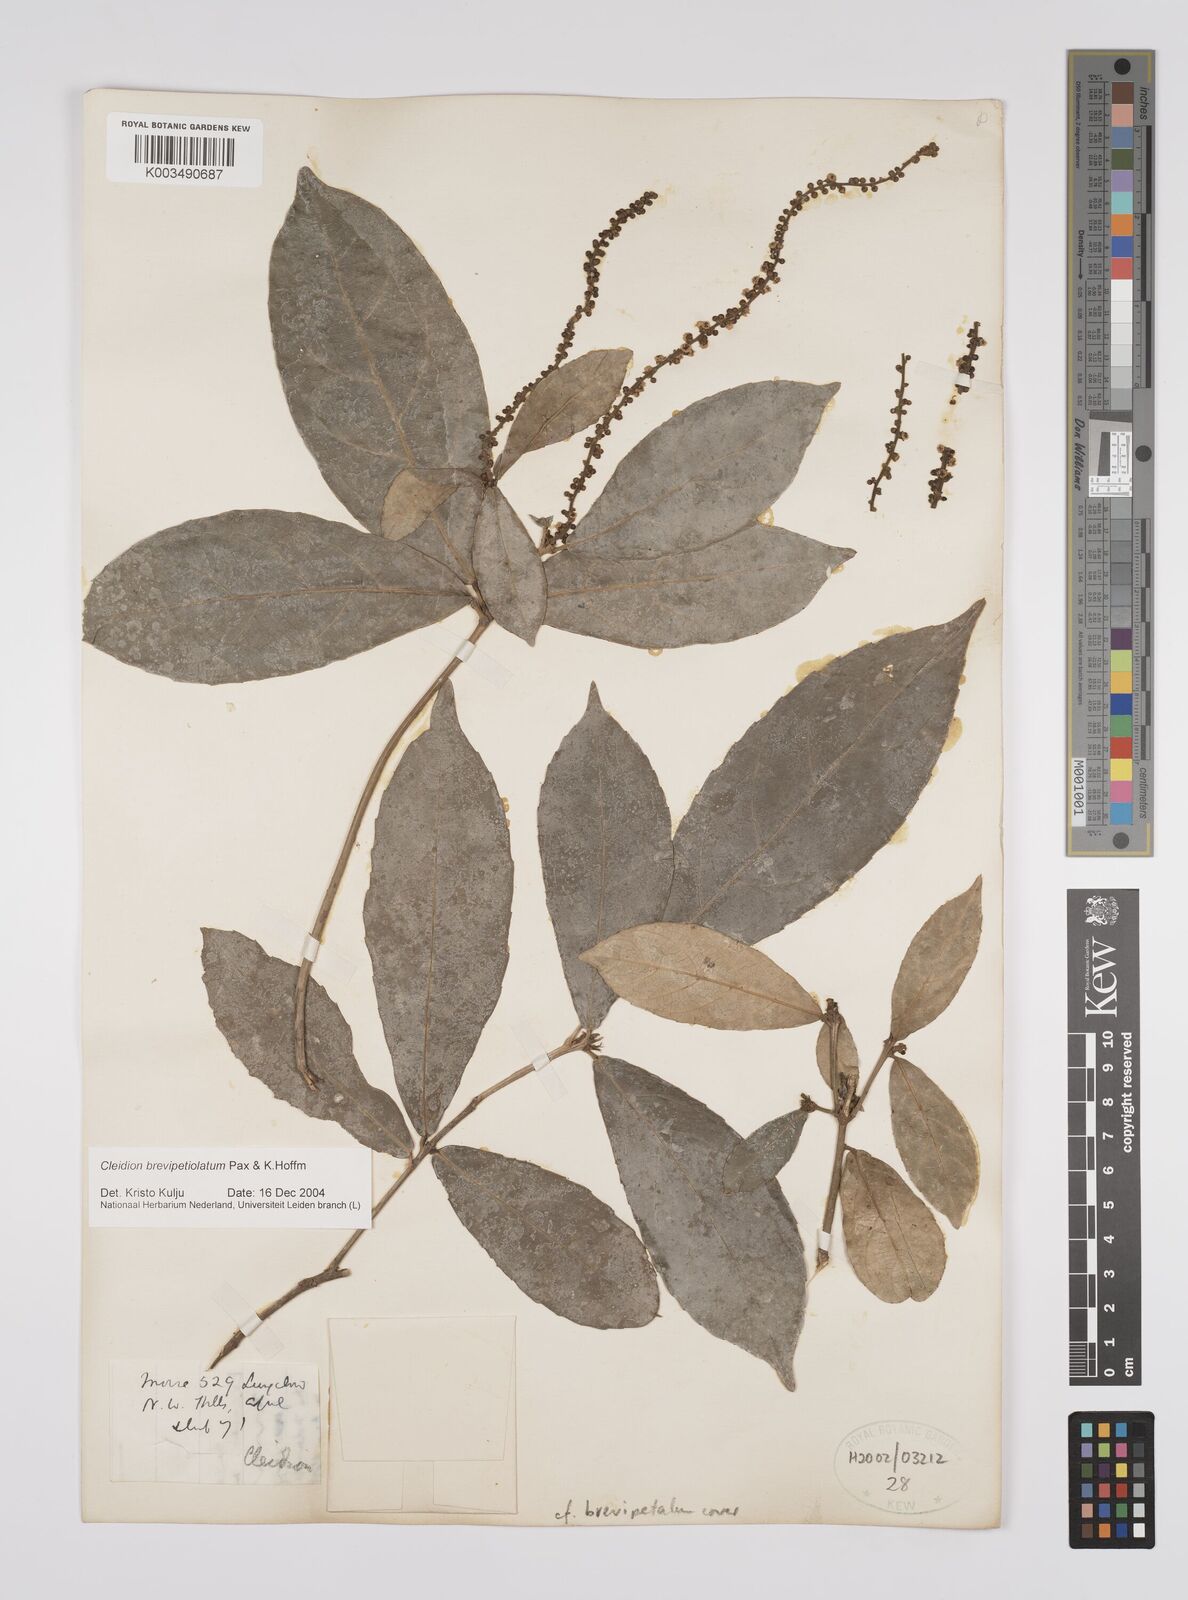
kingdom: Plantae
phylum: Tracheophyta
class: Magnoliopsida
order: Malpighiales
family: Euphorbiaceae
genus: Cleidion
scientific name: Cleidion brevipetiolatum
